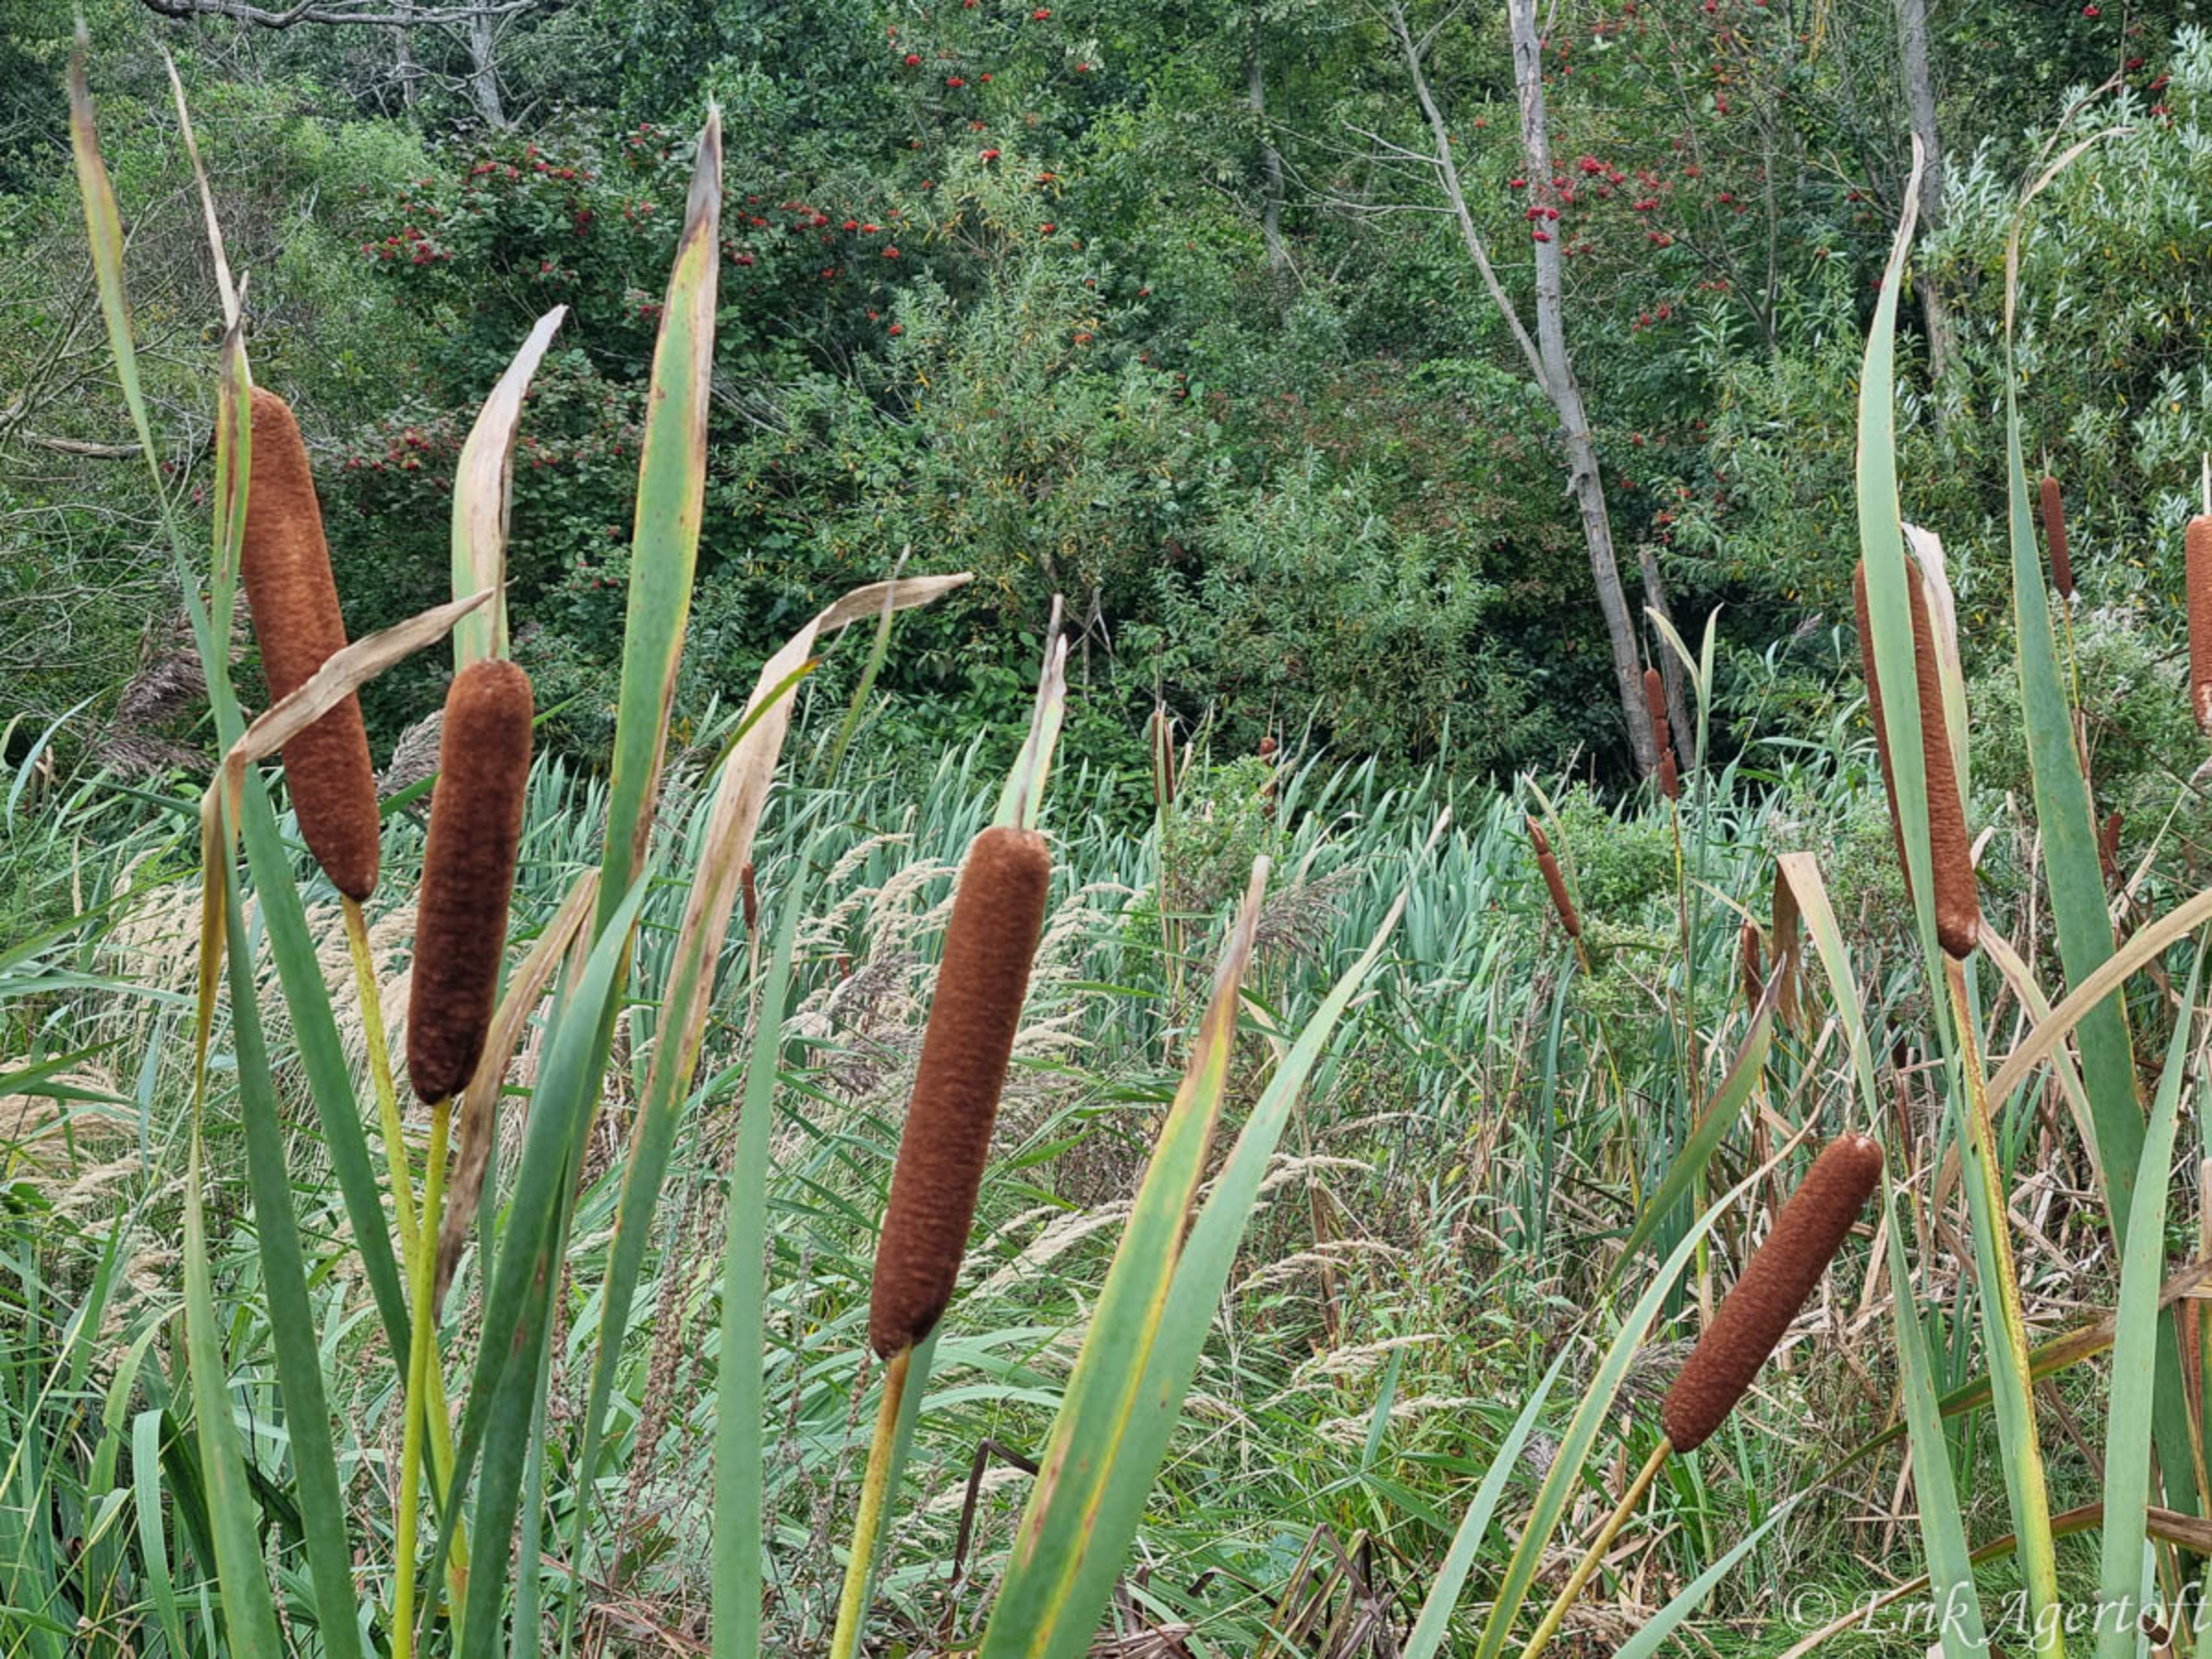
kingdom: Plantae
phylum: Tracheophyta
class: Liliopsida
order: Poales
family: Typhaceae
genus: Typha
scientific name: Typha latifolia
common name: Bredbladet dunhammer
